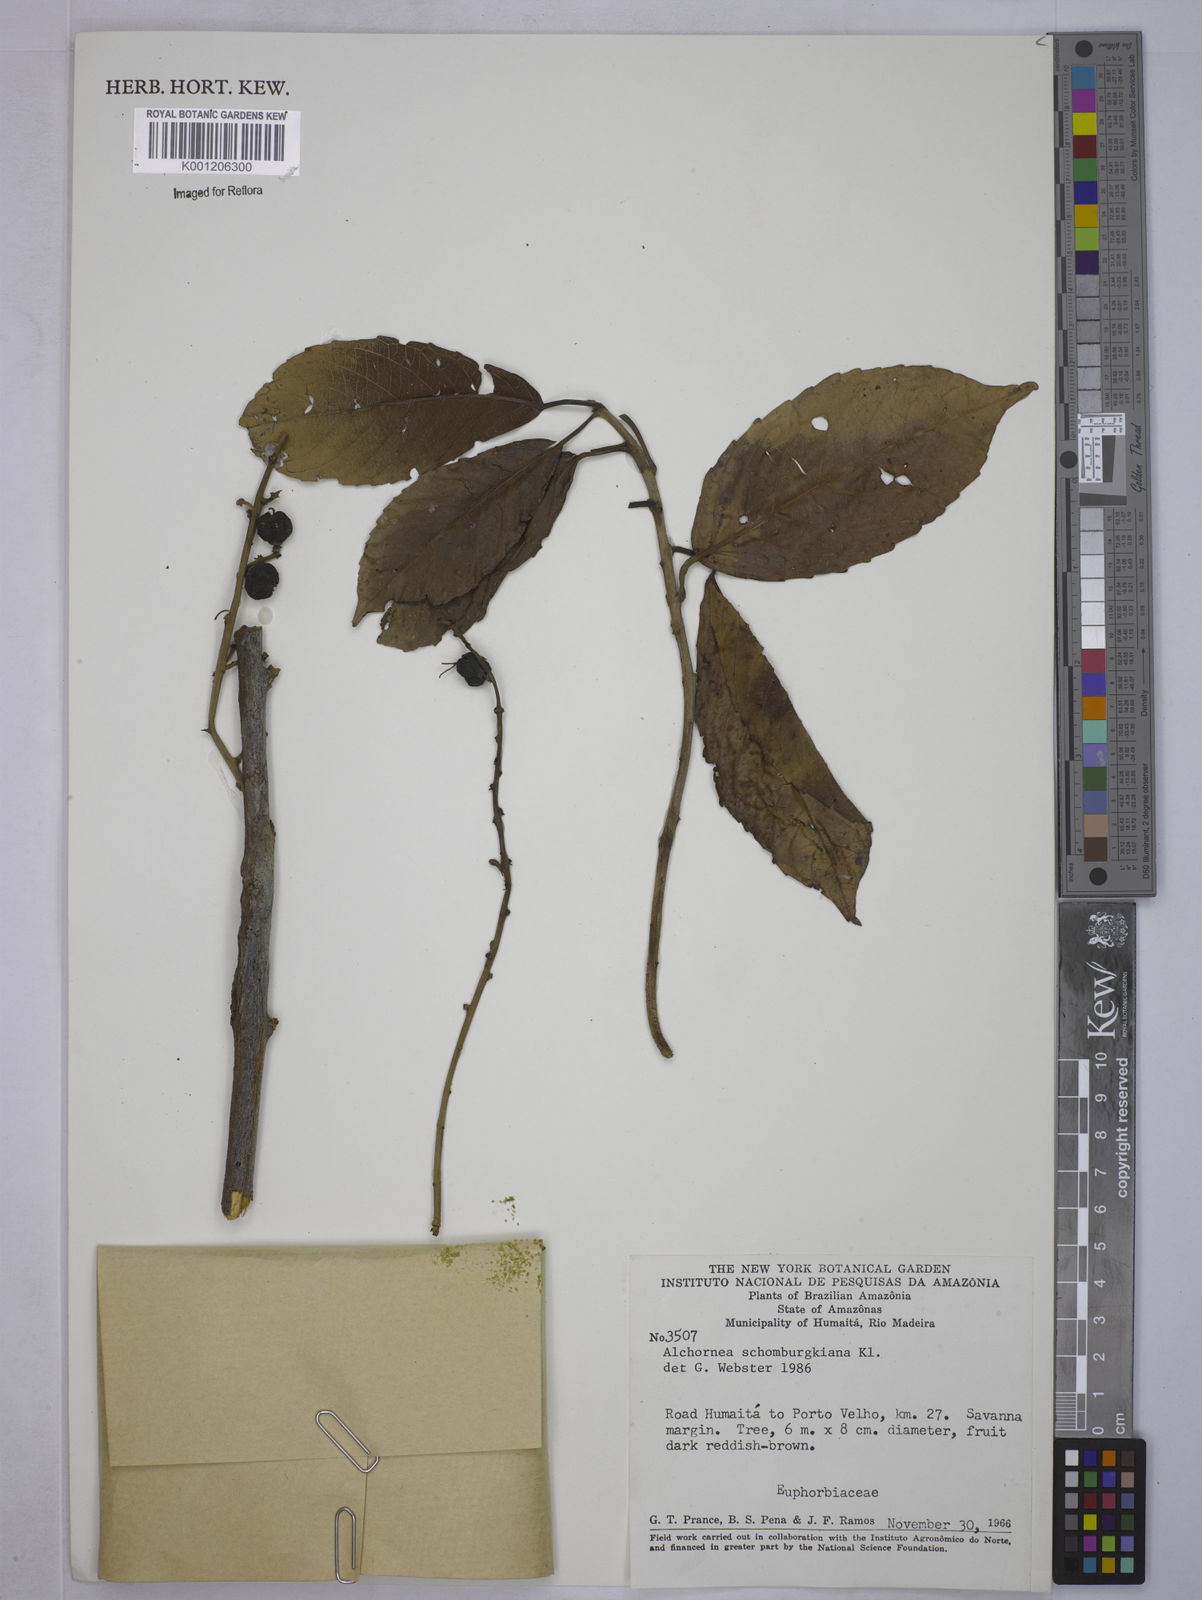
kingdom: Plantae
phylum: Tracheophyta
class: Magnoliopsida
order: Malpighiales
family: Euphorbiaceae
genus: Alchornea
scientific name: Alchornea discolor
